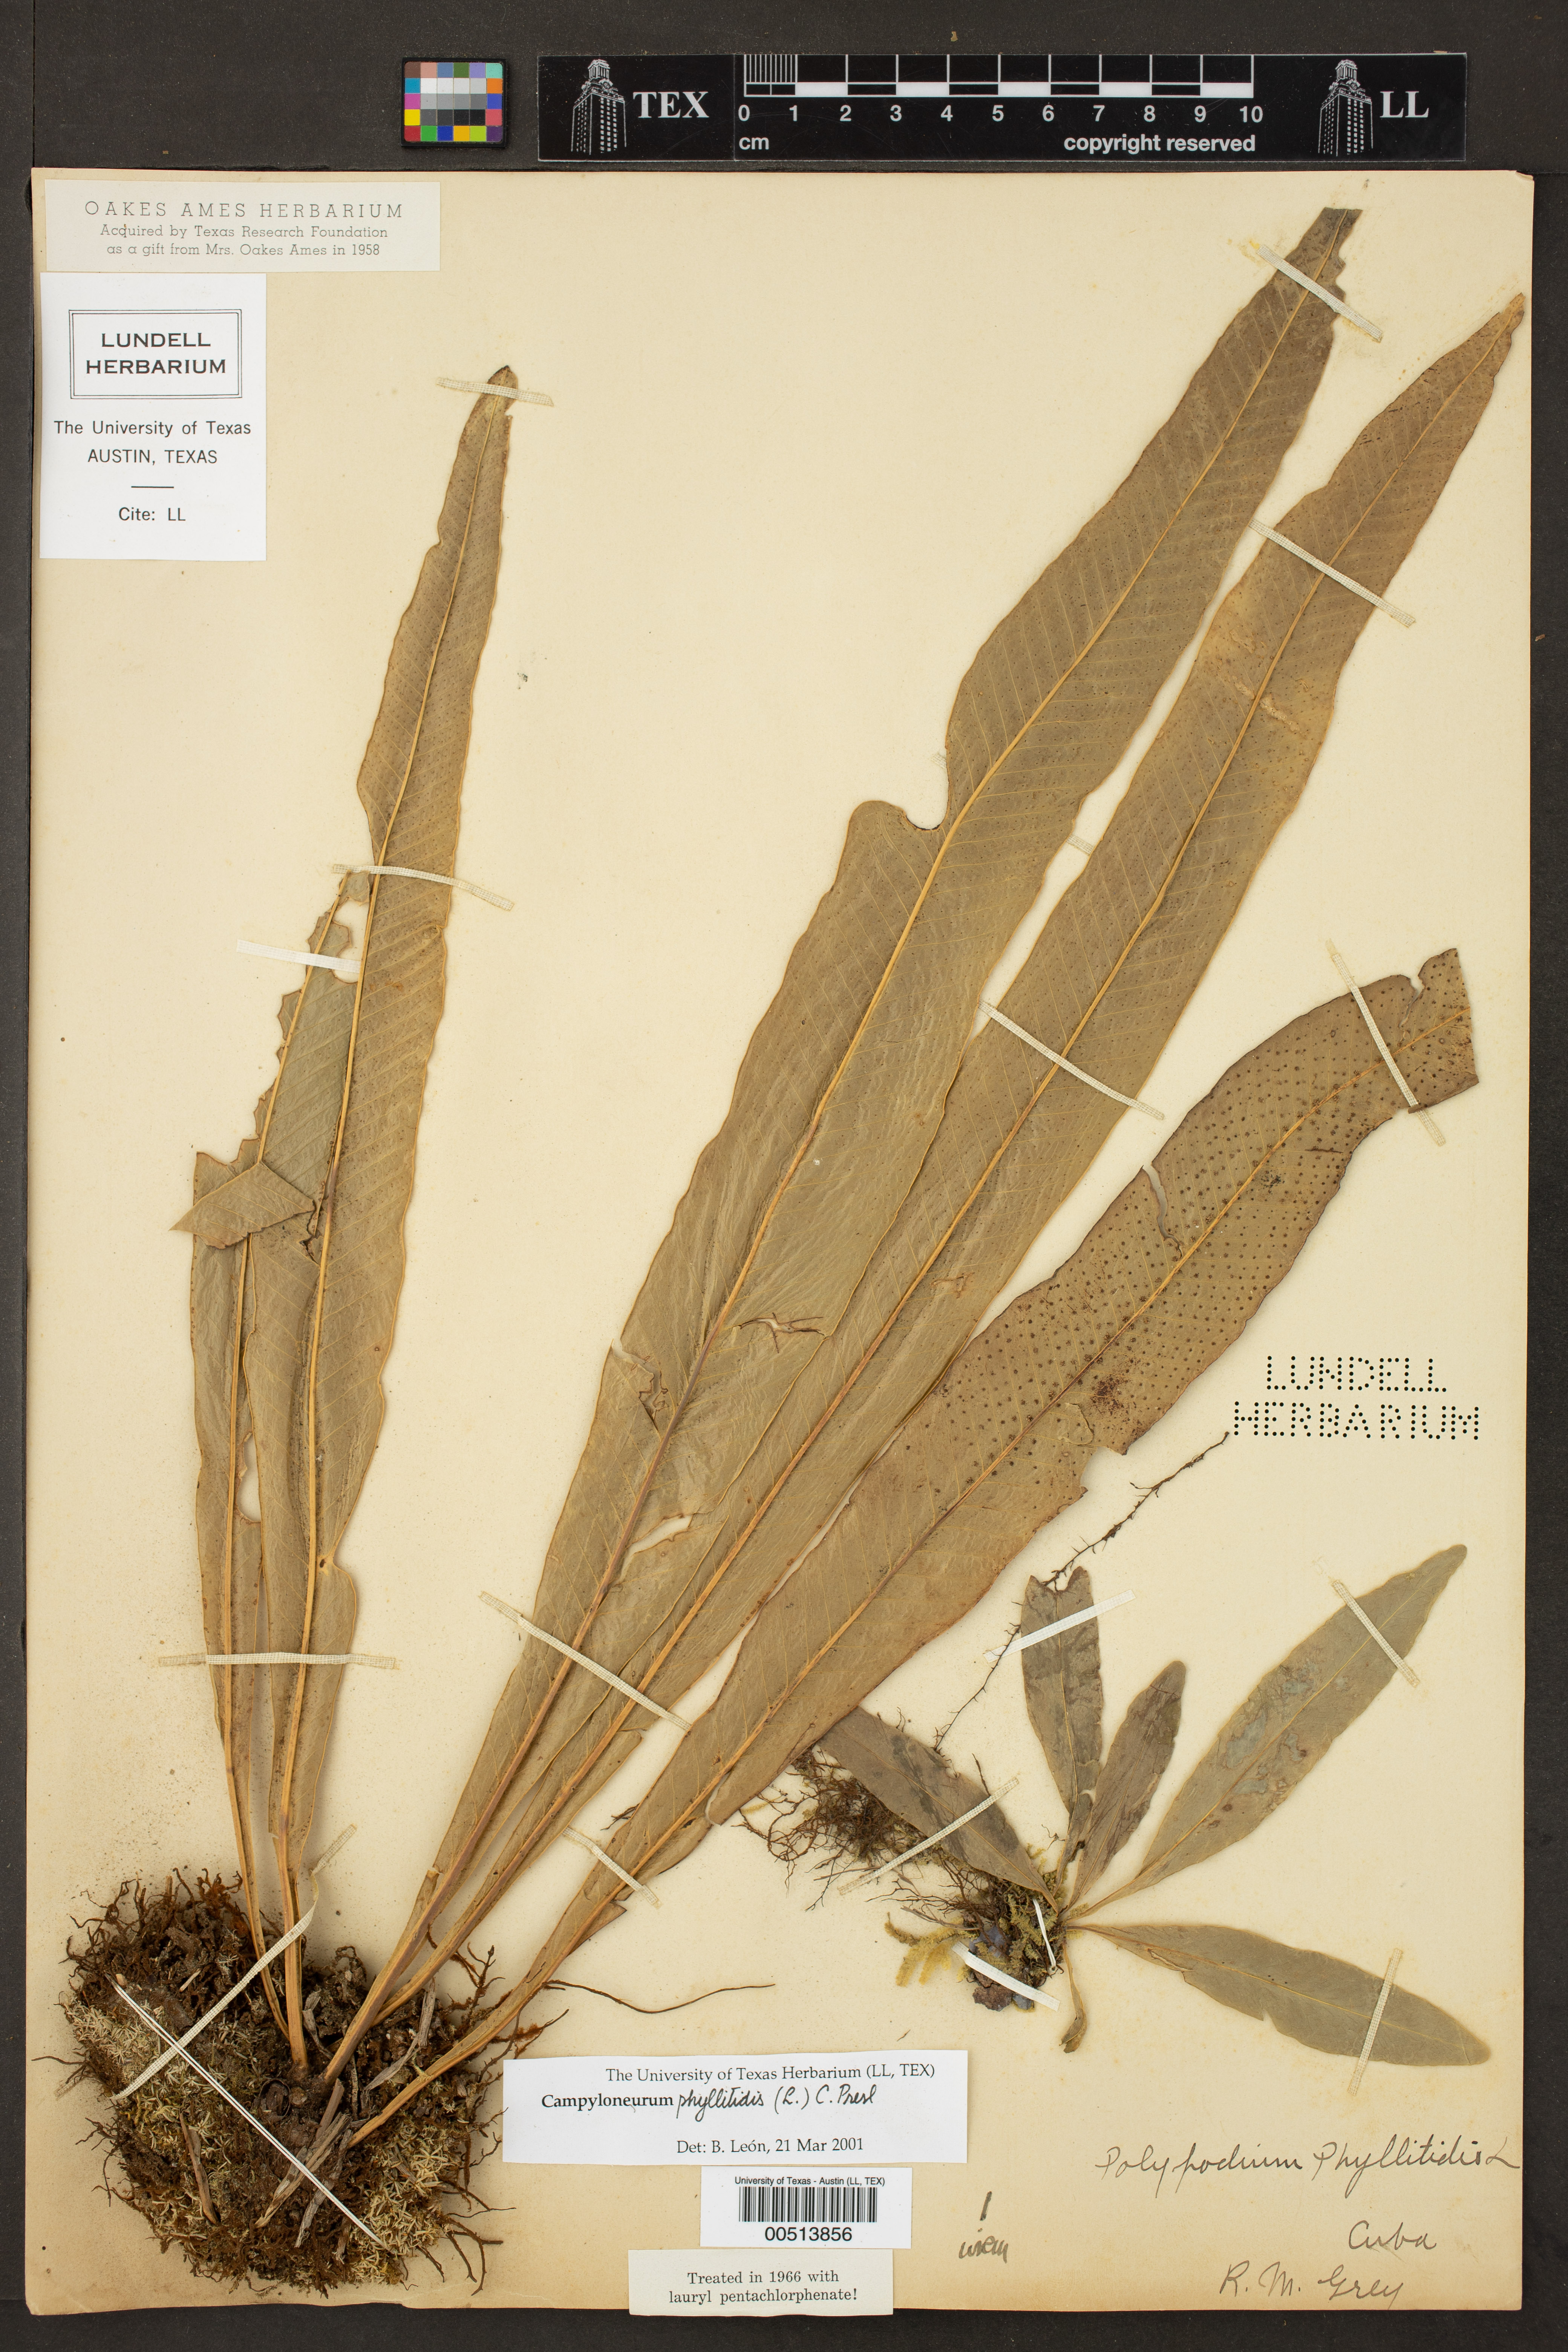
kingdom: Plantae
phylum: Tracheophyta
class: Polypodiopsida
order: Polypodiales
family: Polypodiaceae
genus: Campyloneurum
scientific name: Campyloneurum phyllitidis
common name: Cow-tongue fern
